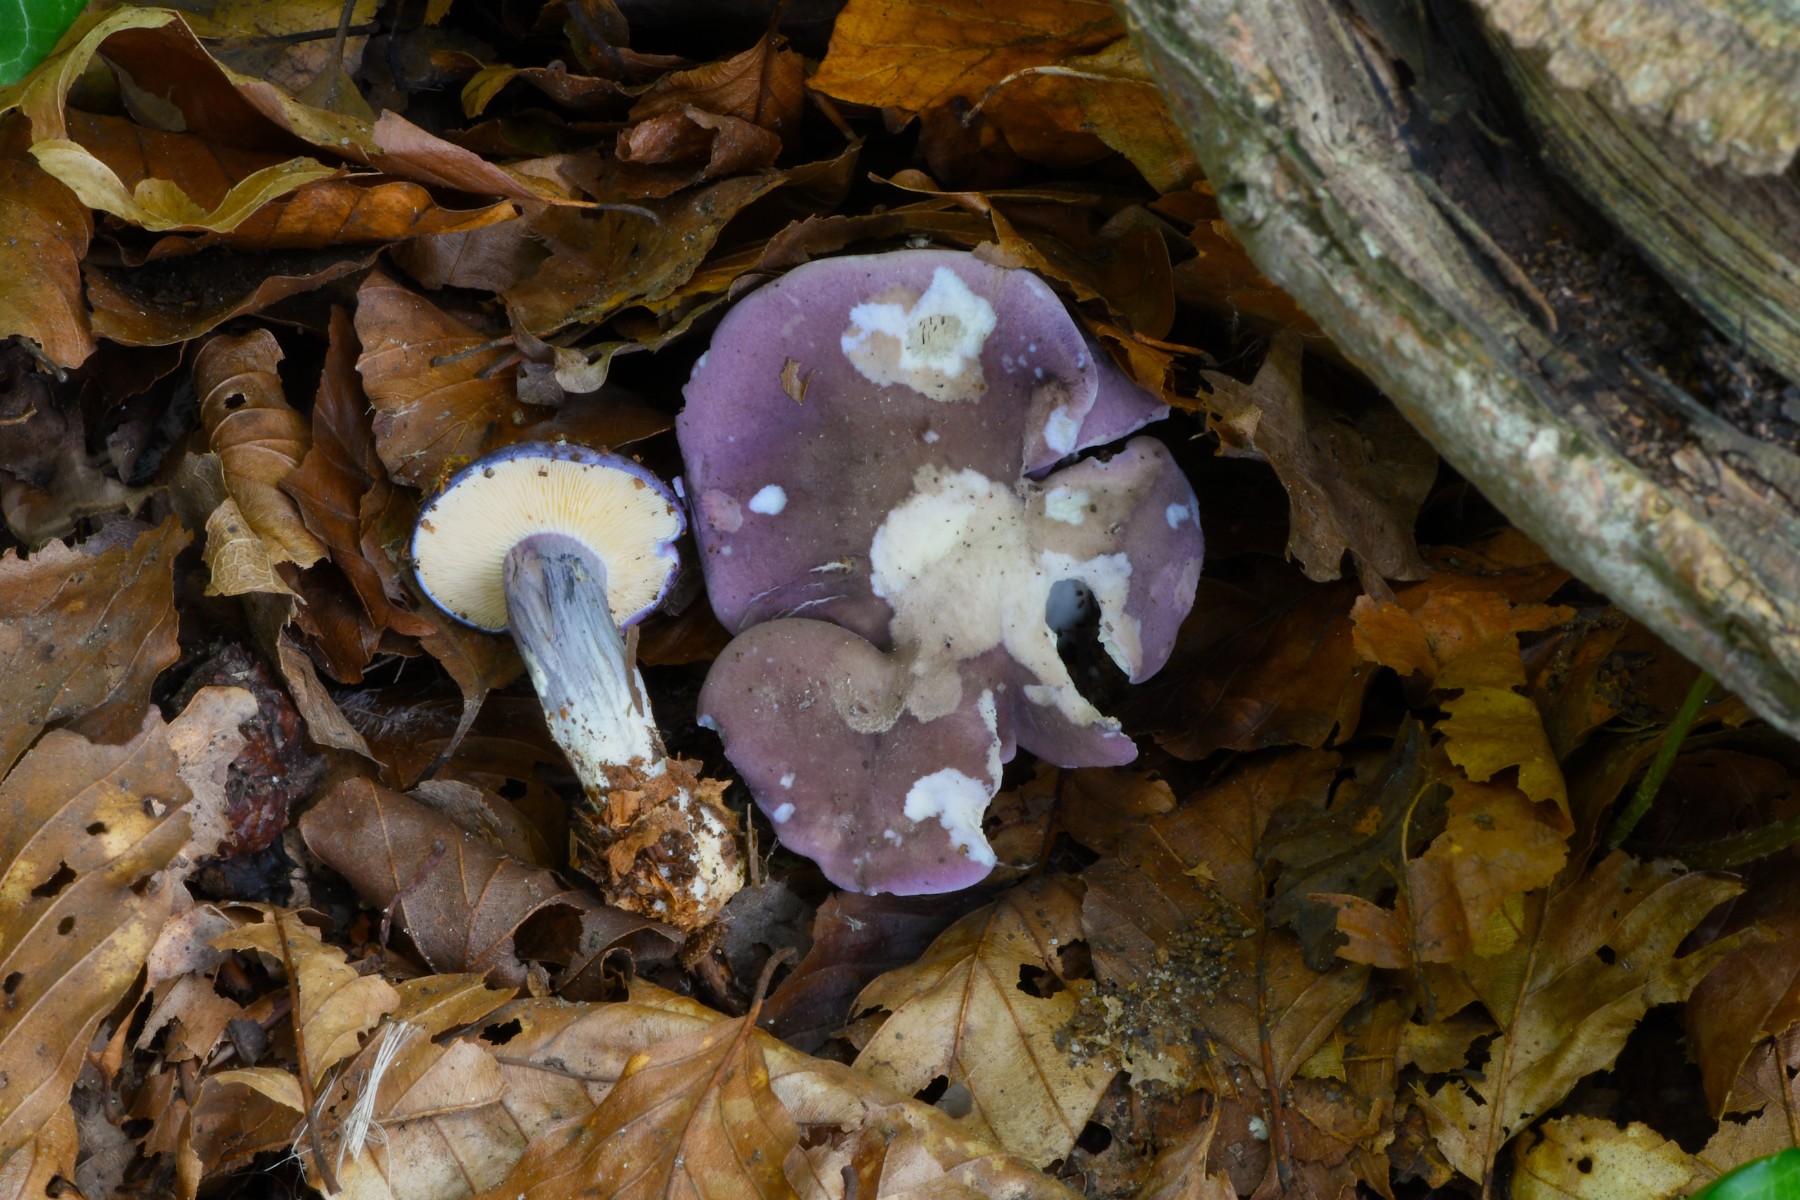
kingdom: Fungi
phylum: Basidiomycota
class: Agaricomycetes
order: Agaricales
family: Lyophyllaceae
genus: Calocybe
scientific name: Calocybe ionides
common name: violblå fagerhat
